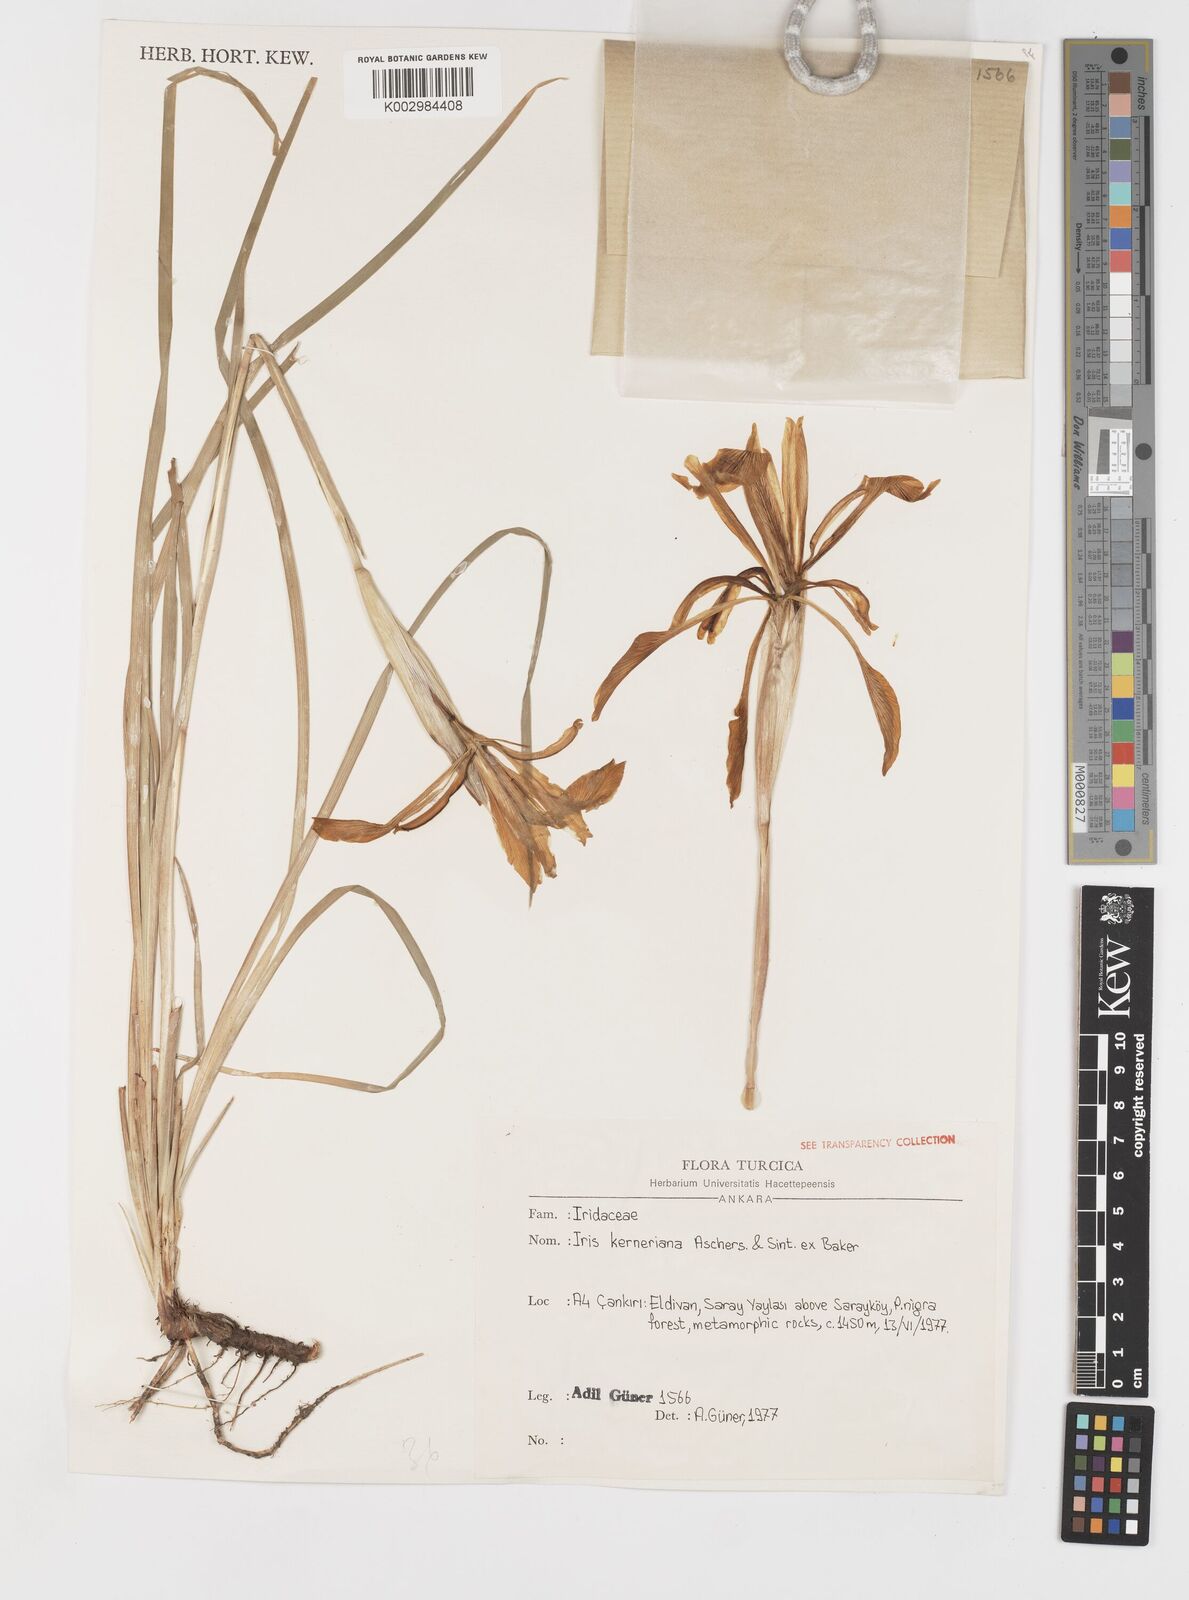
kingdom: Plantae
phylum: Tracheophyta
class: Liliopsida
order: Asparagales
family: Iridaceae
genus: Iris
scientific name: Iris haussknechtii
